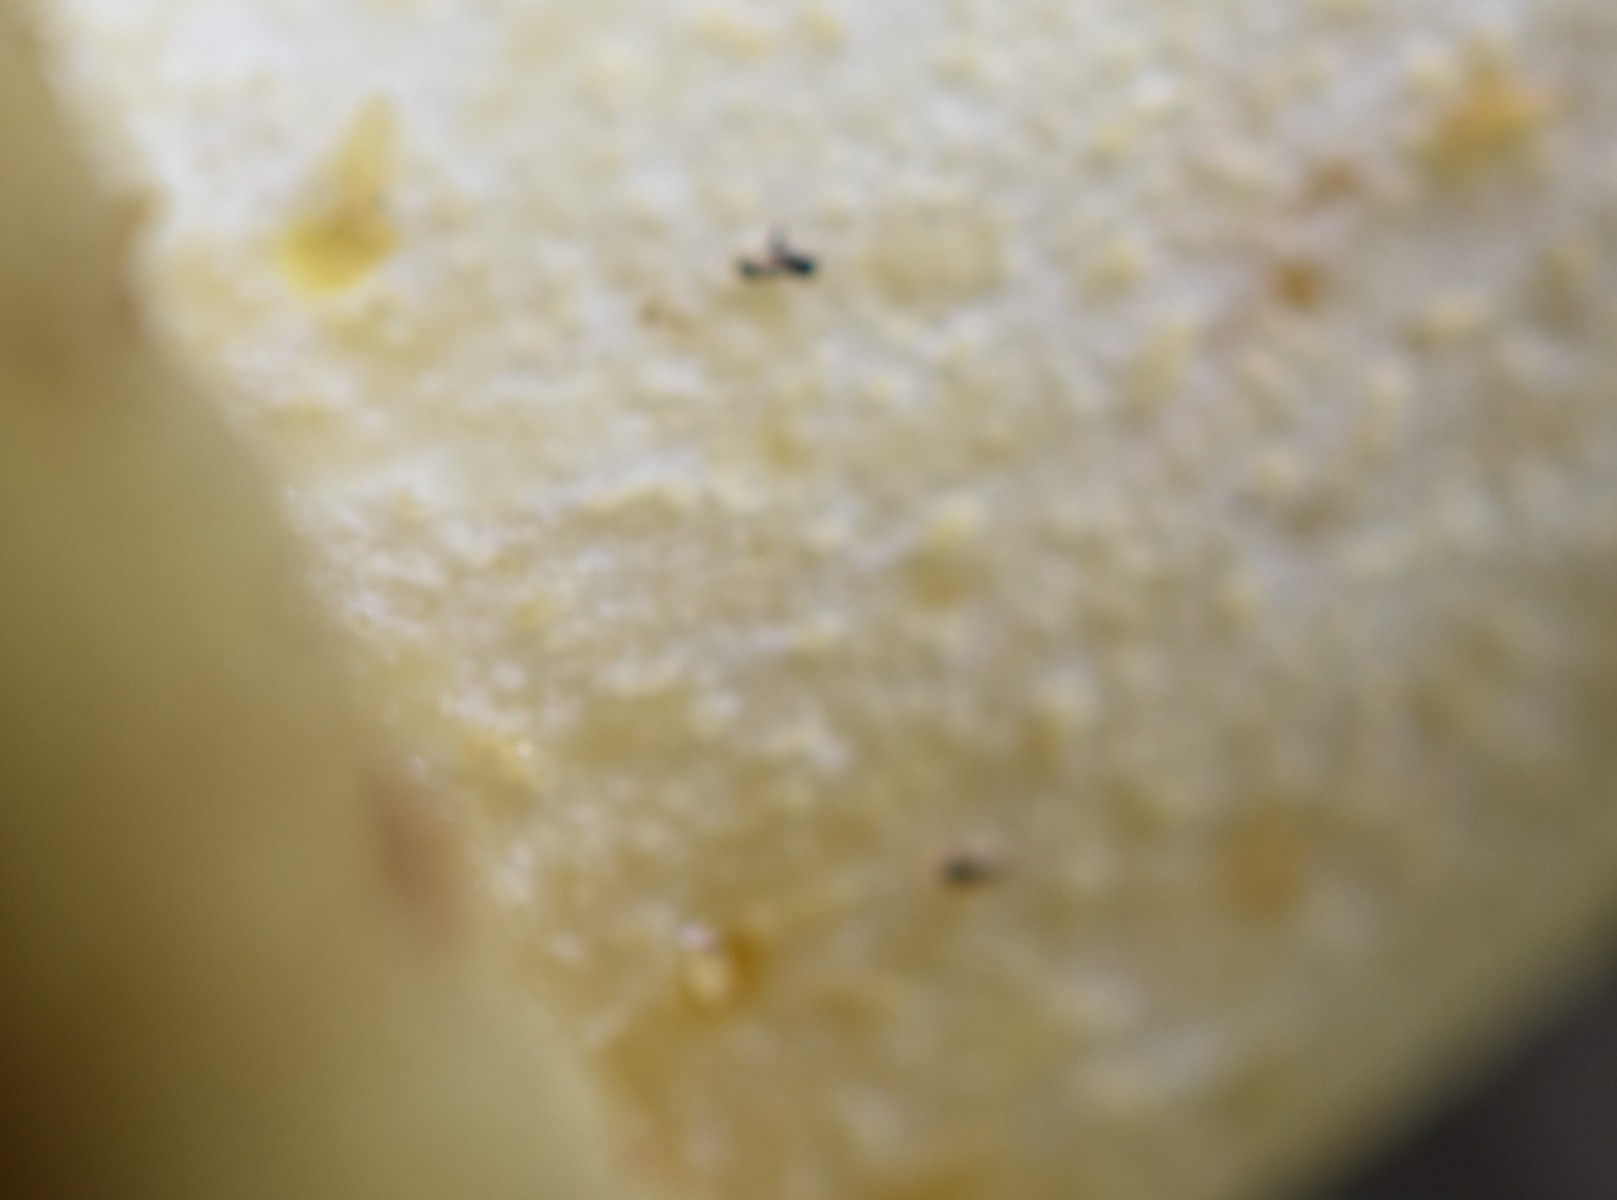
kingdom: Fungi
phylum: Basidiomycota
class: Agaricomycetes
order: Boletales
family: Suillaceae
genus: Suillus
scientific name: Suillus granulatus
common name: kornet slimrørhat
